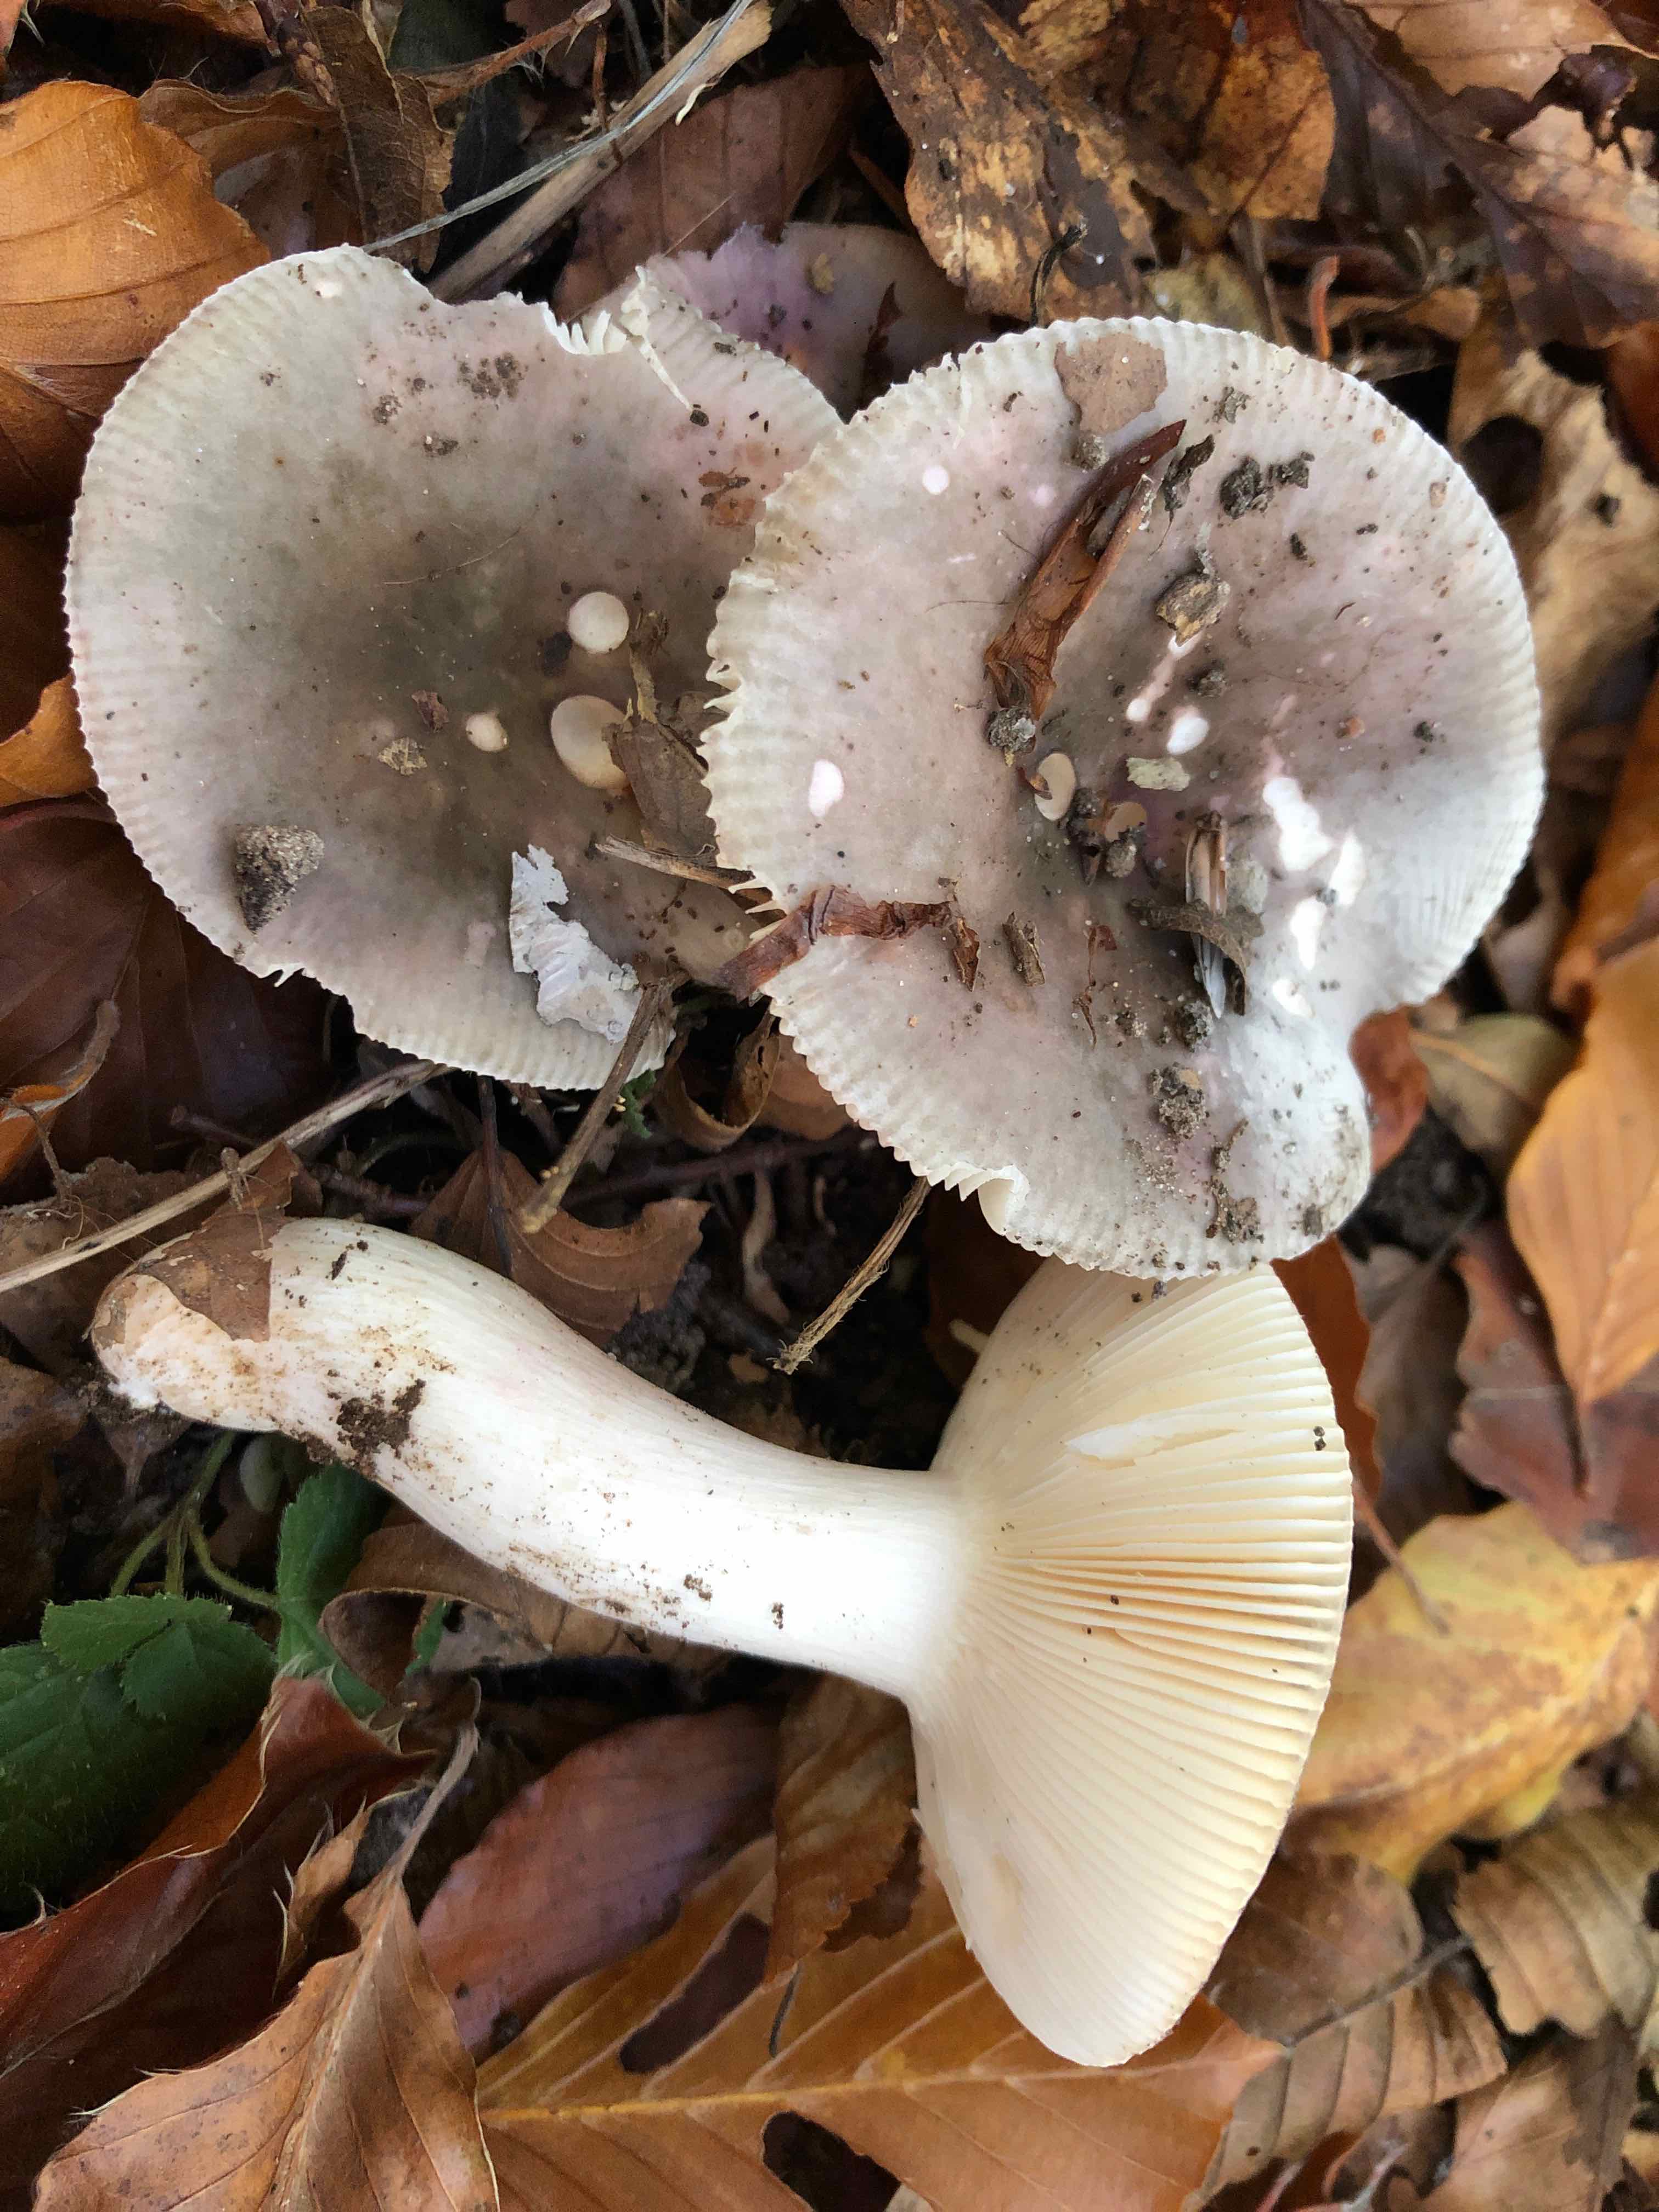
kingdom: Fungi
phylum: Basidiomycota
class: Agaricomycetes
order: Russulales
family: Russulaceae
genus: Russula
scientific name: Russula grisea
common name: grålig skørhat
